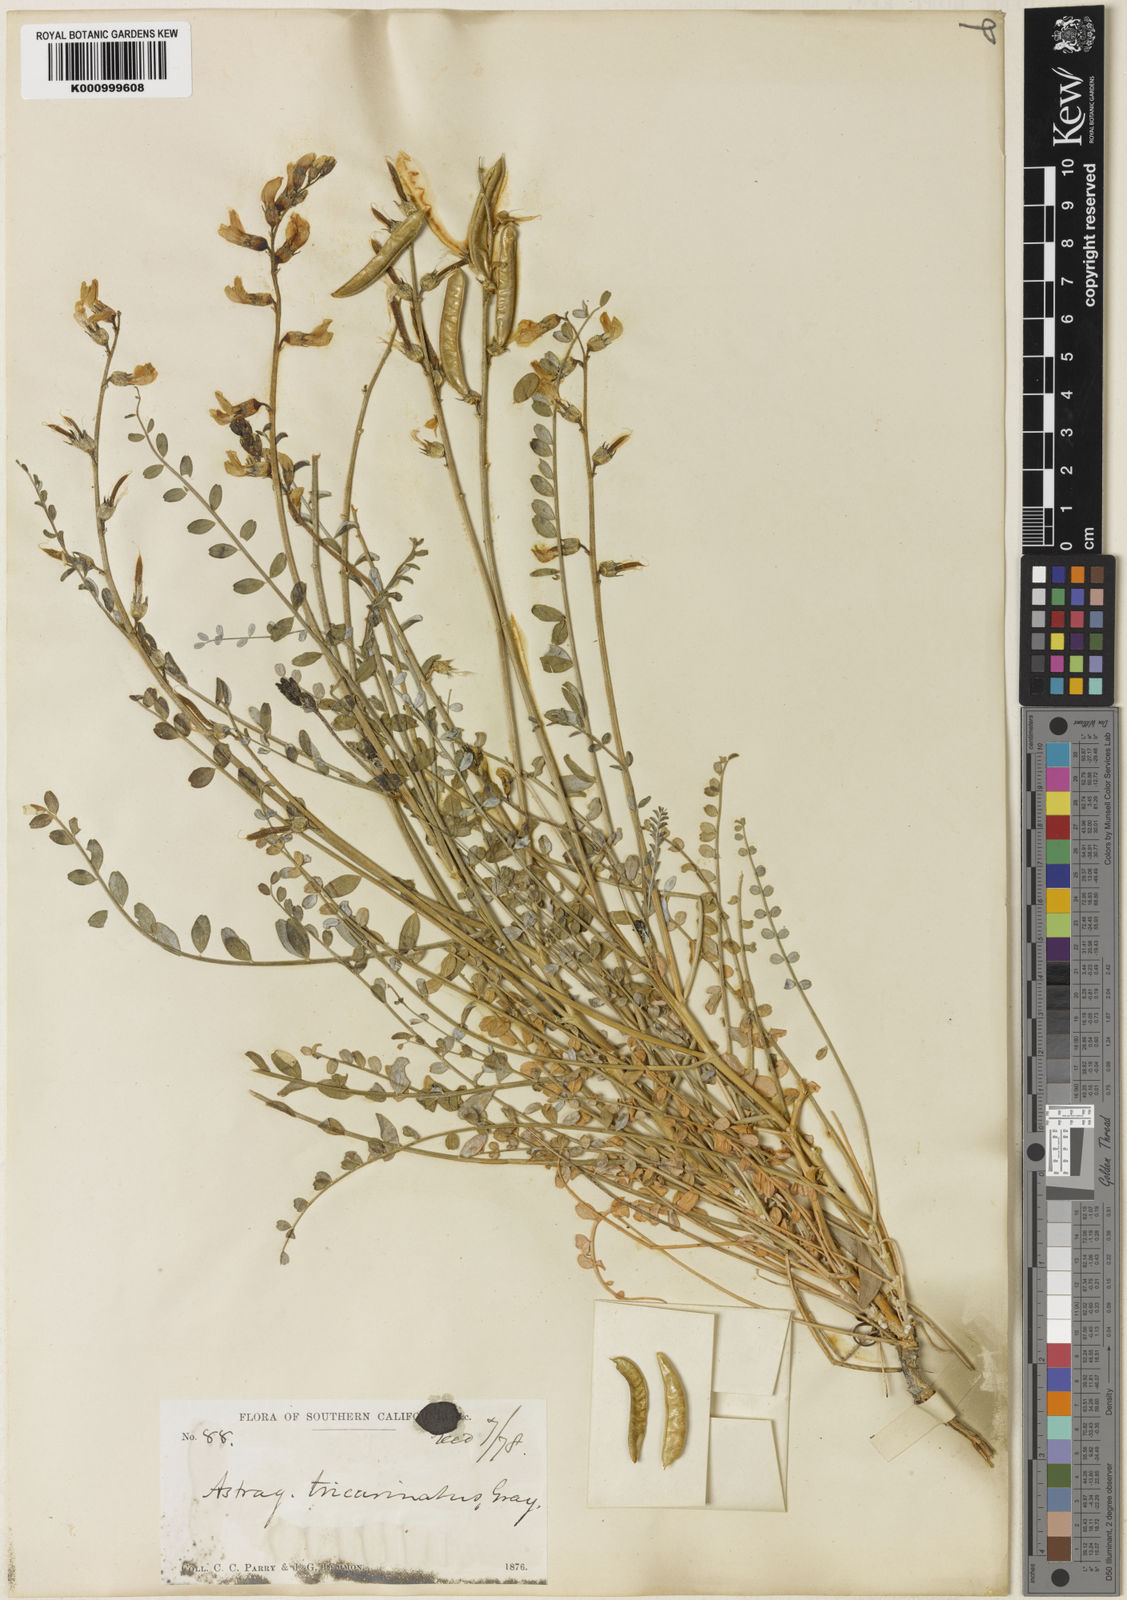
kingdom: Plantae
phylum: Tracheophyta
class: Magnoliopsida
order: Fabales
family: Fabaceae
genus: Astragalus
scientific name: Astragalus tricarinatus
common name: Triple-rib milk-vetch
